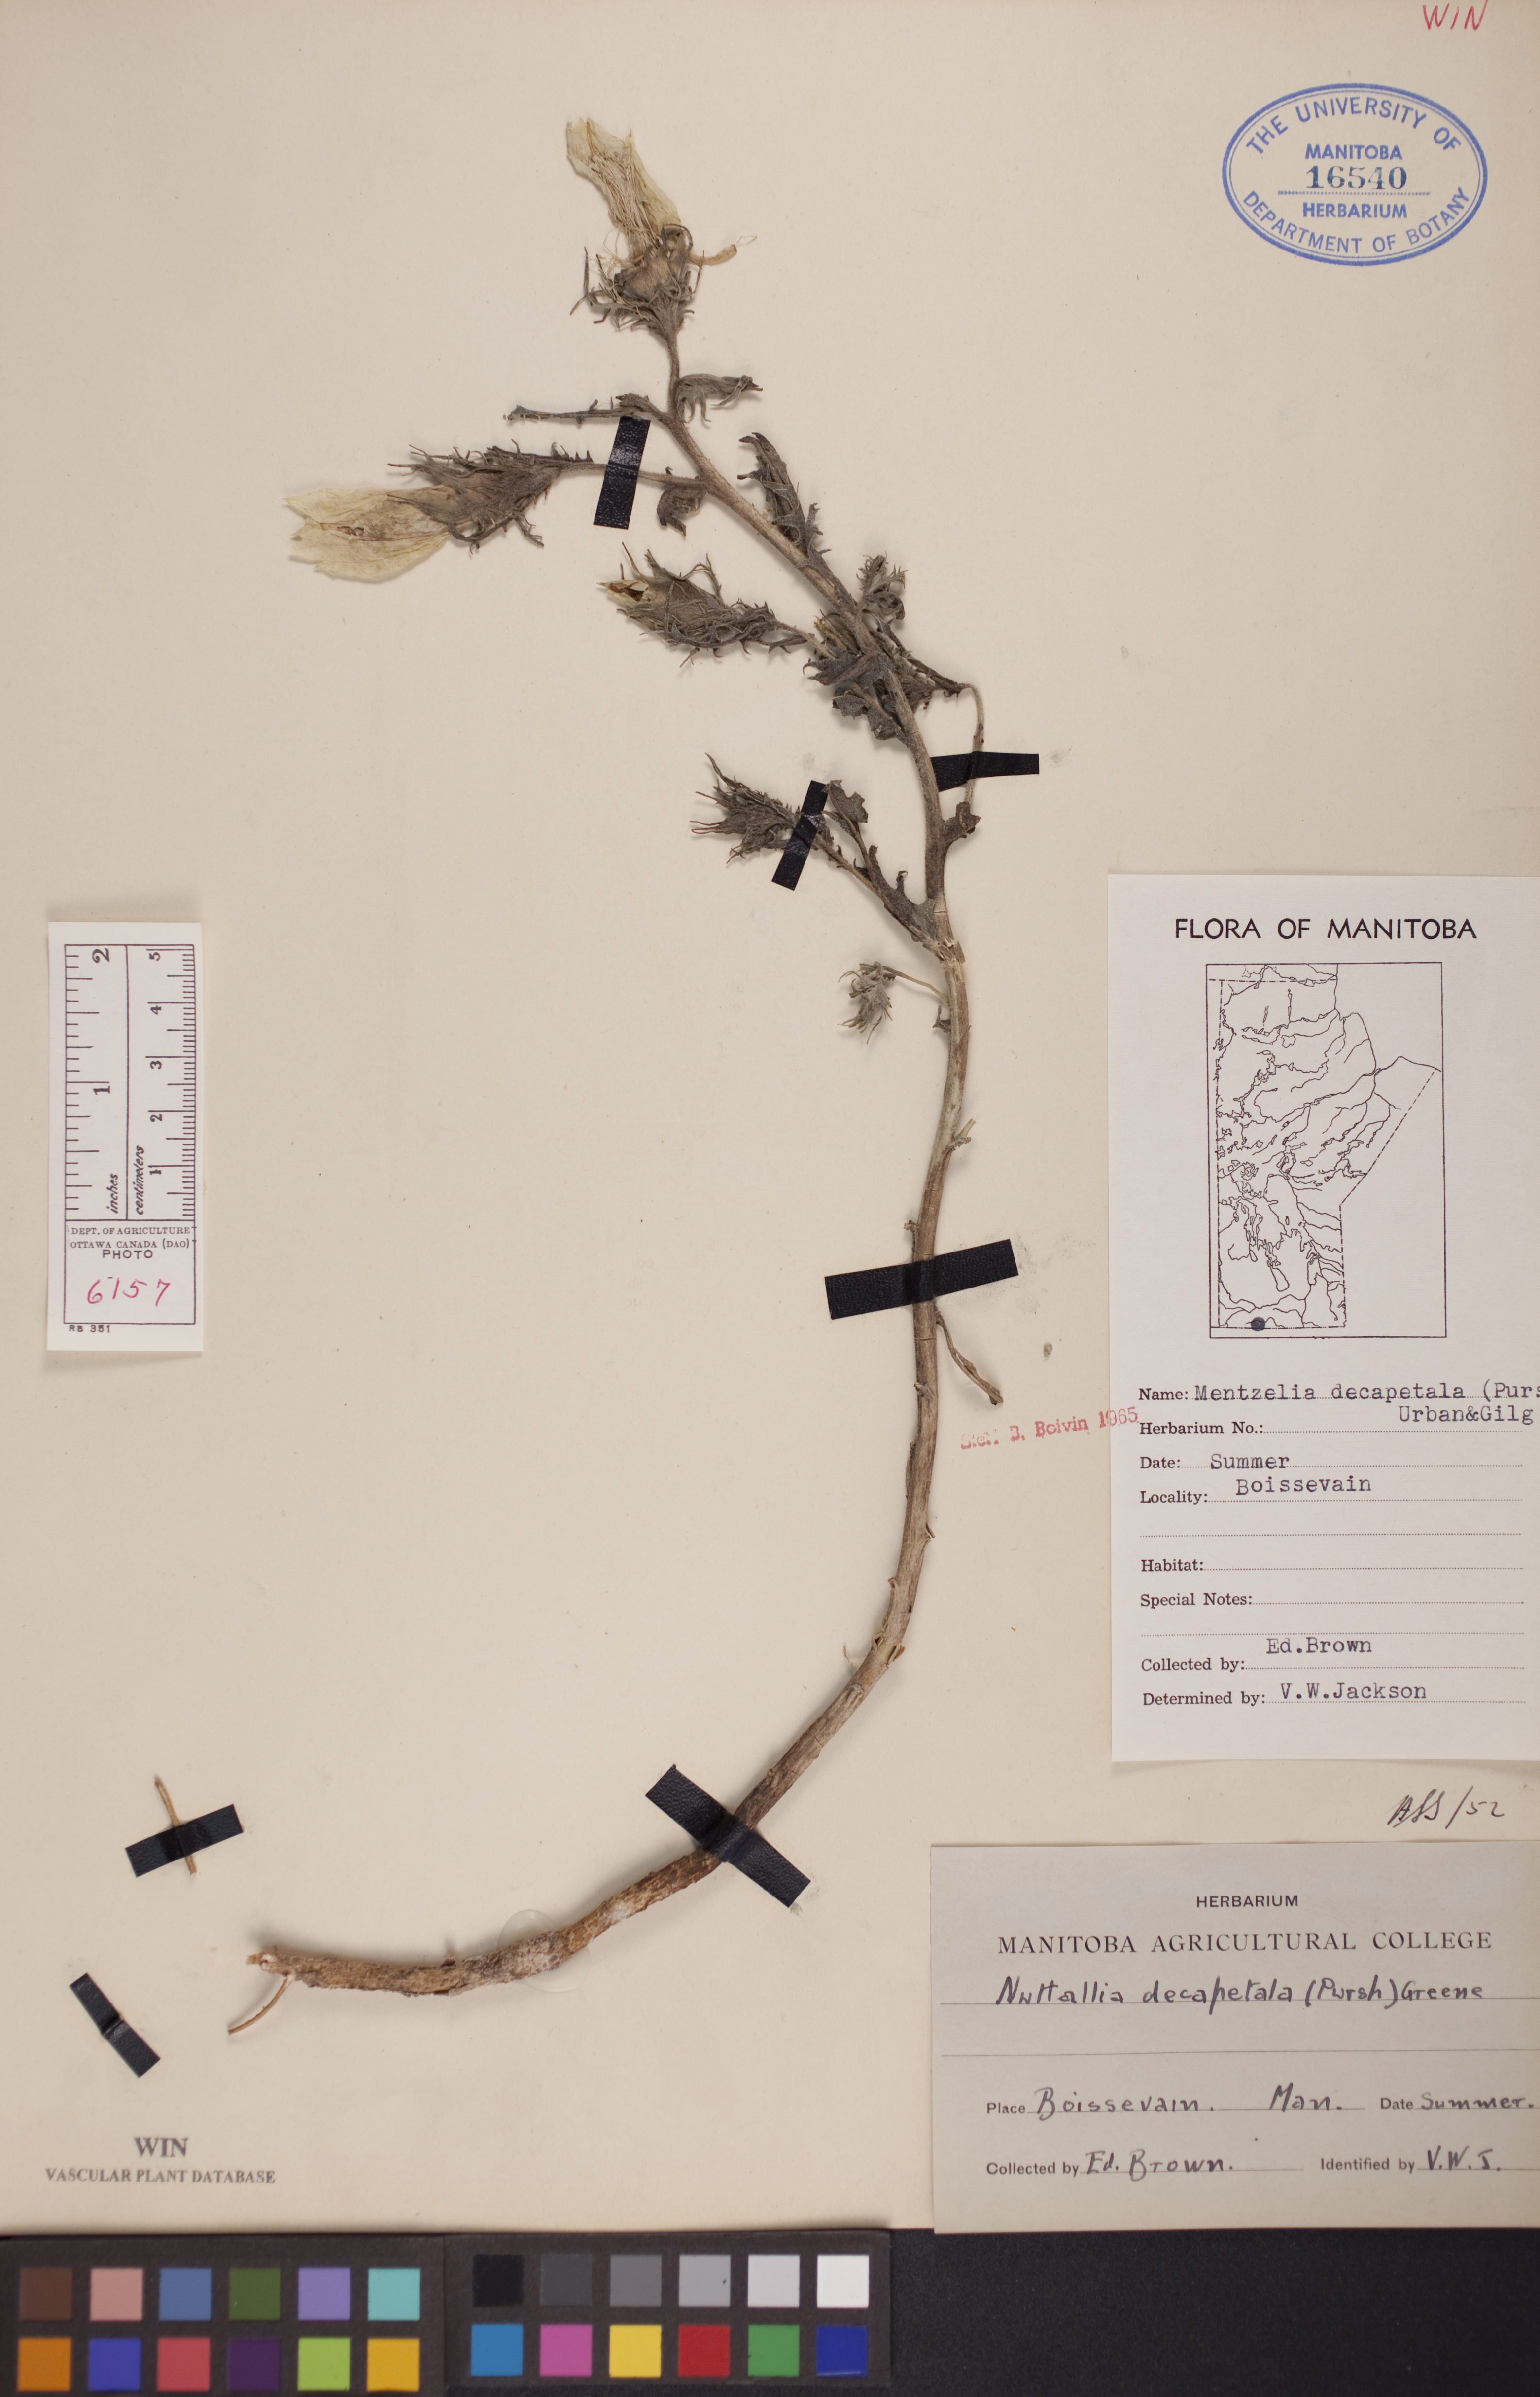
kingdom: Plantae
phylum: Tracheophyta
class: Magnoliopsida
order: Cornales
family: Loasaceae
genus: Mentzelia
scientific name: Mentzelia decapetala
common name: Gumbo-lily
